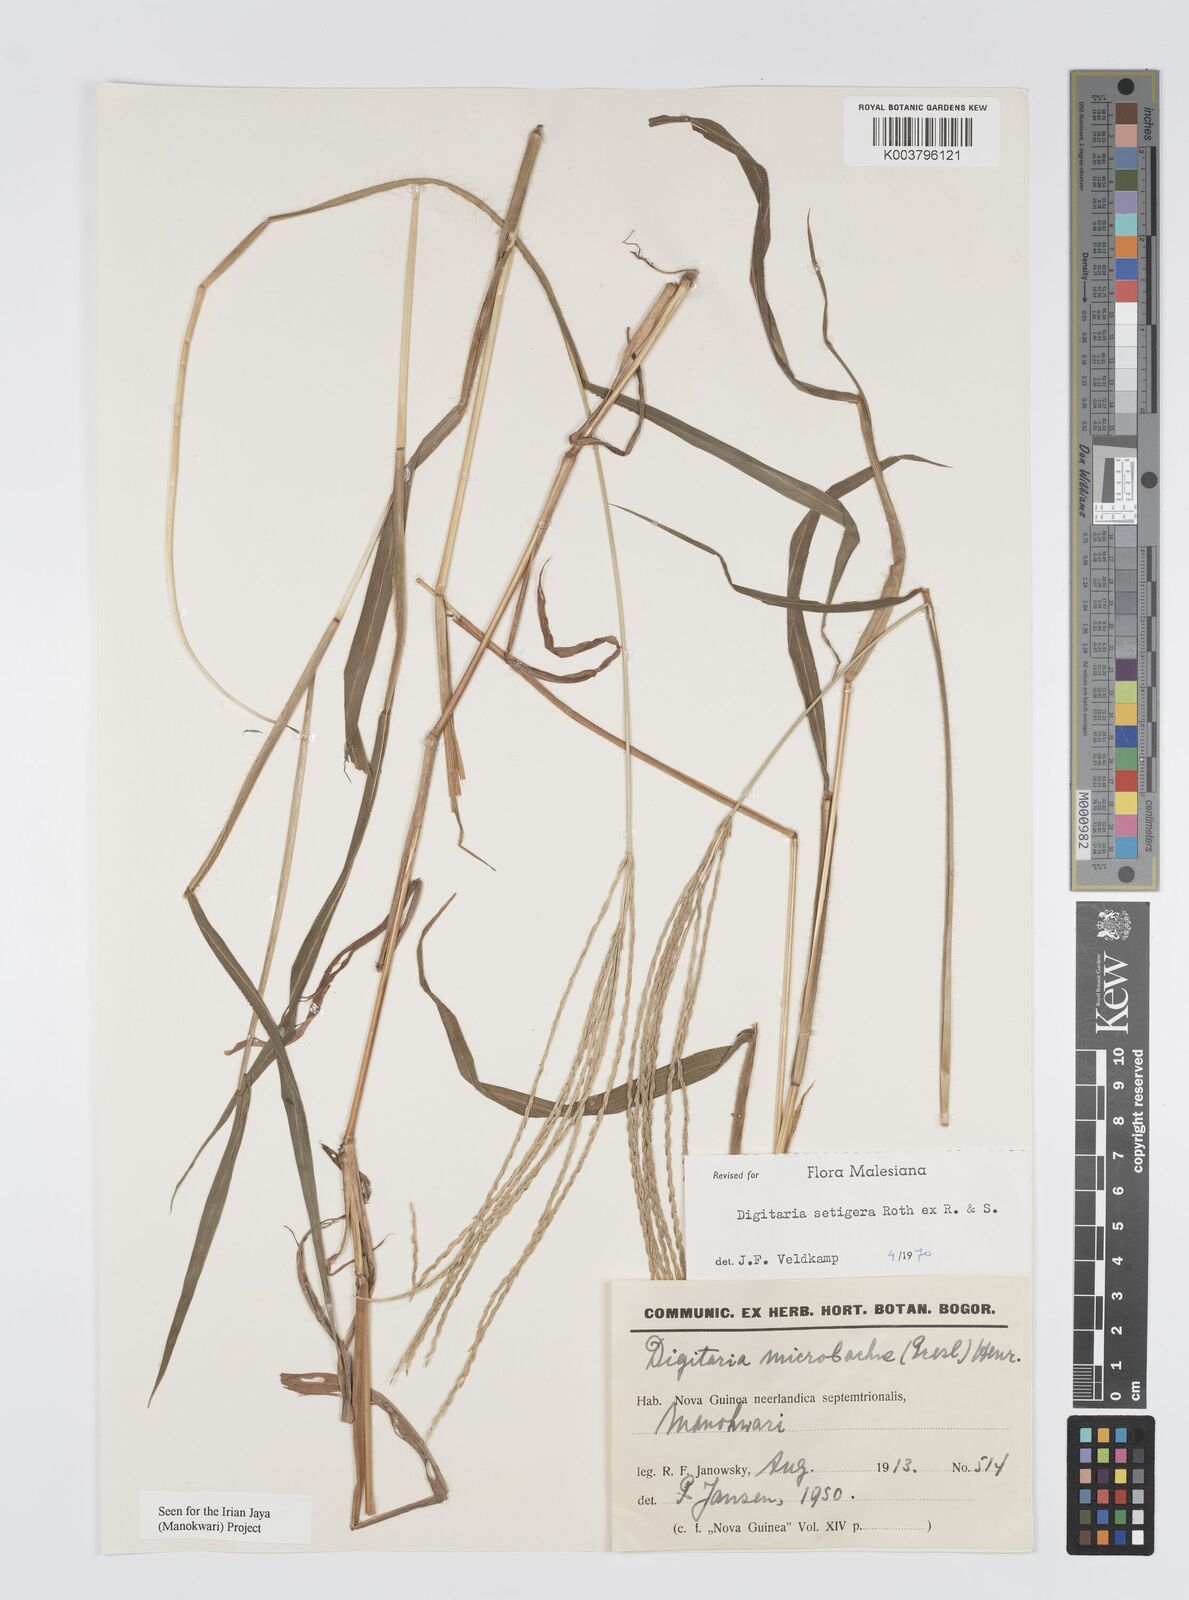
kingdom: Plantae
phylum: Tracheophyta
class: Liliopsida
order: Poales
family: Poaceae
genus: Digitaria
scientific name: Digitaria setigera
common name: East indian crabgrass
